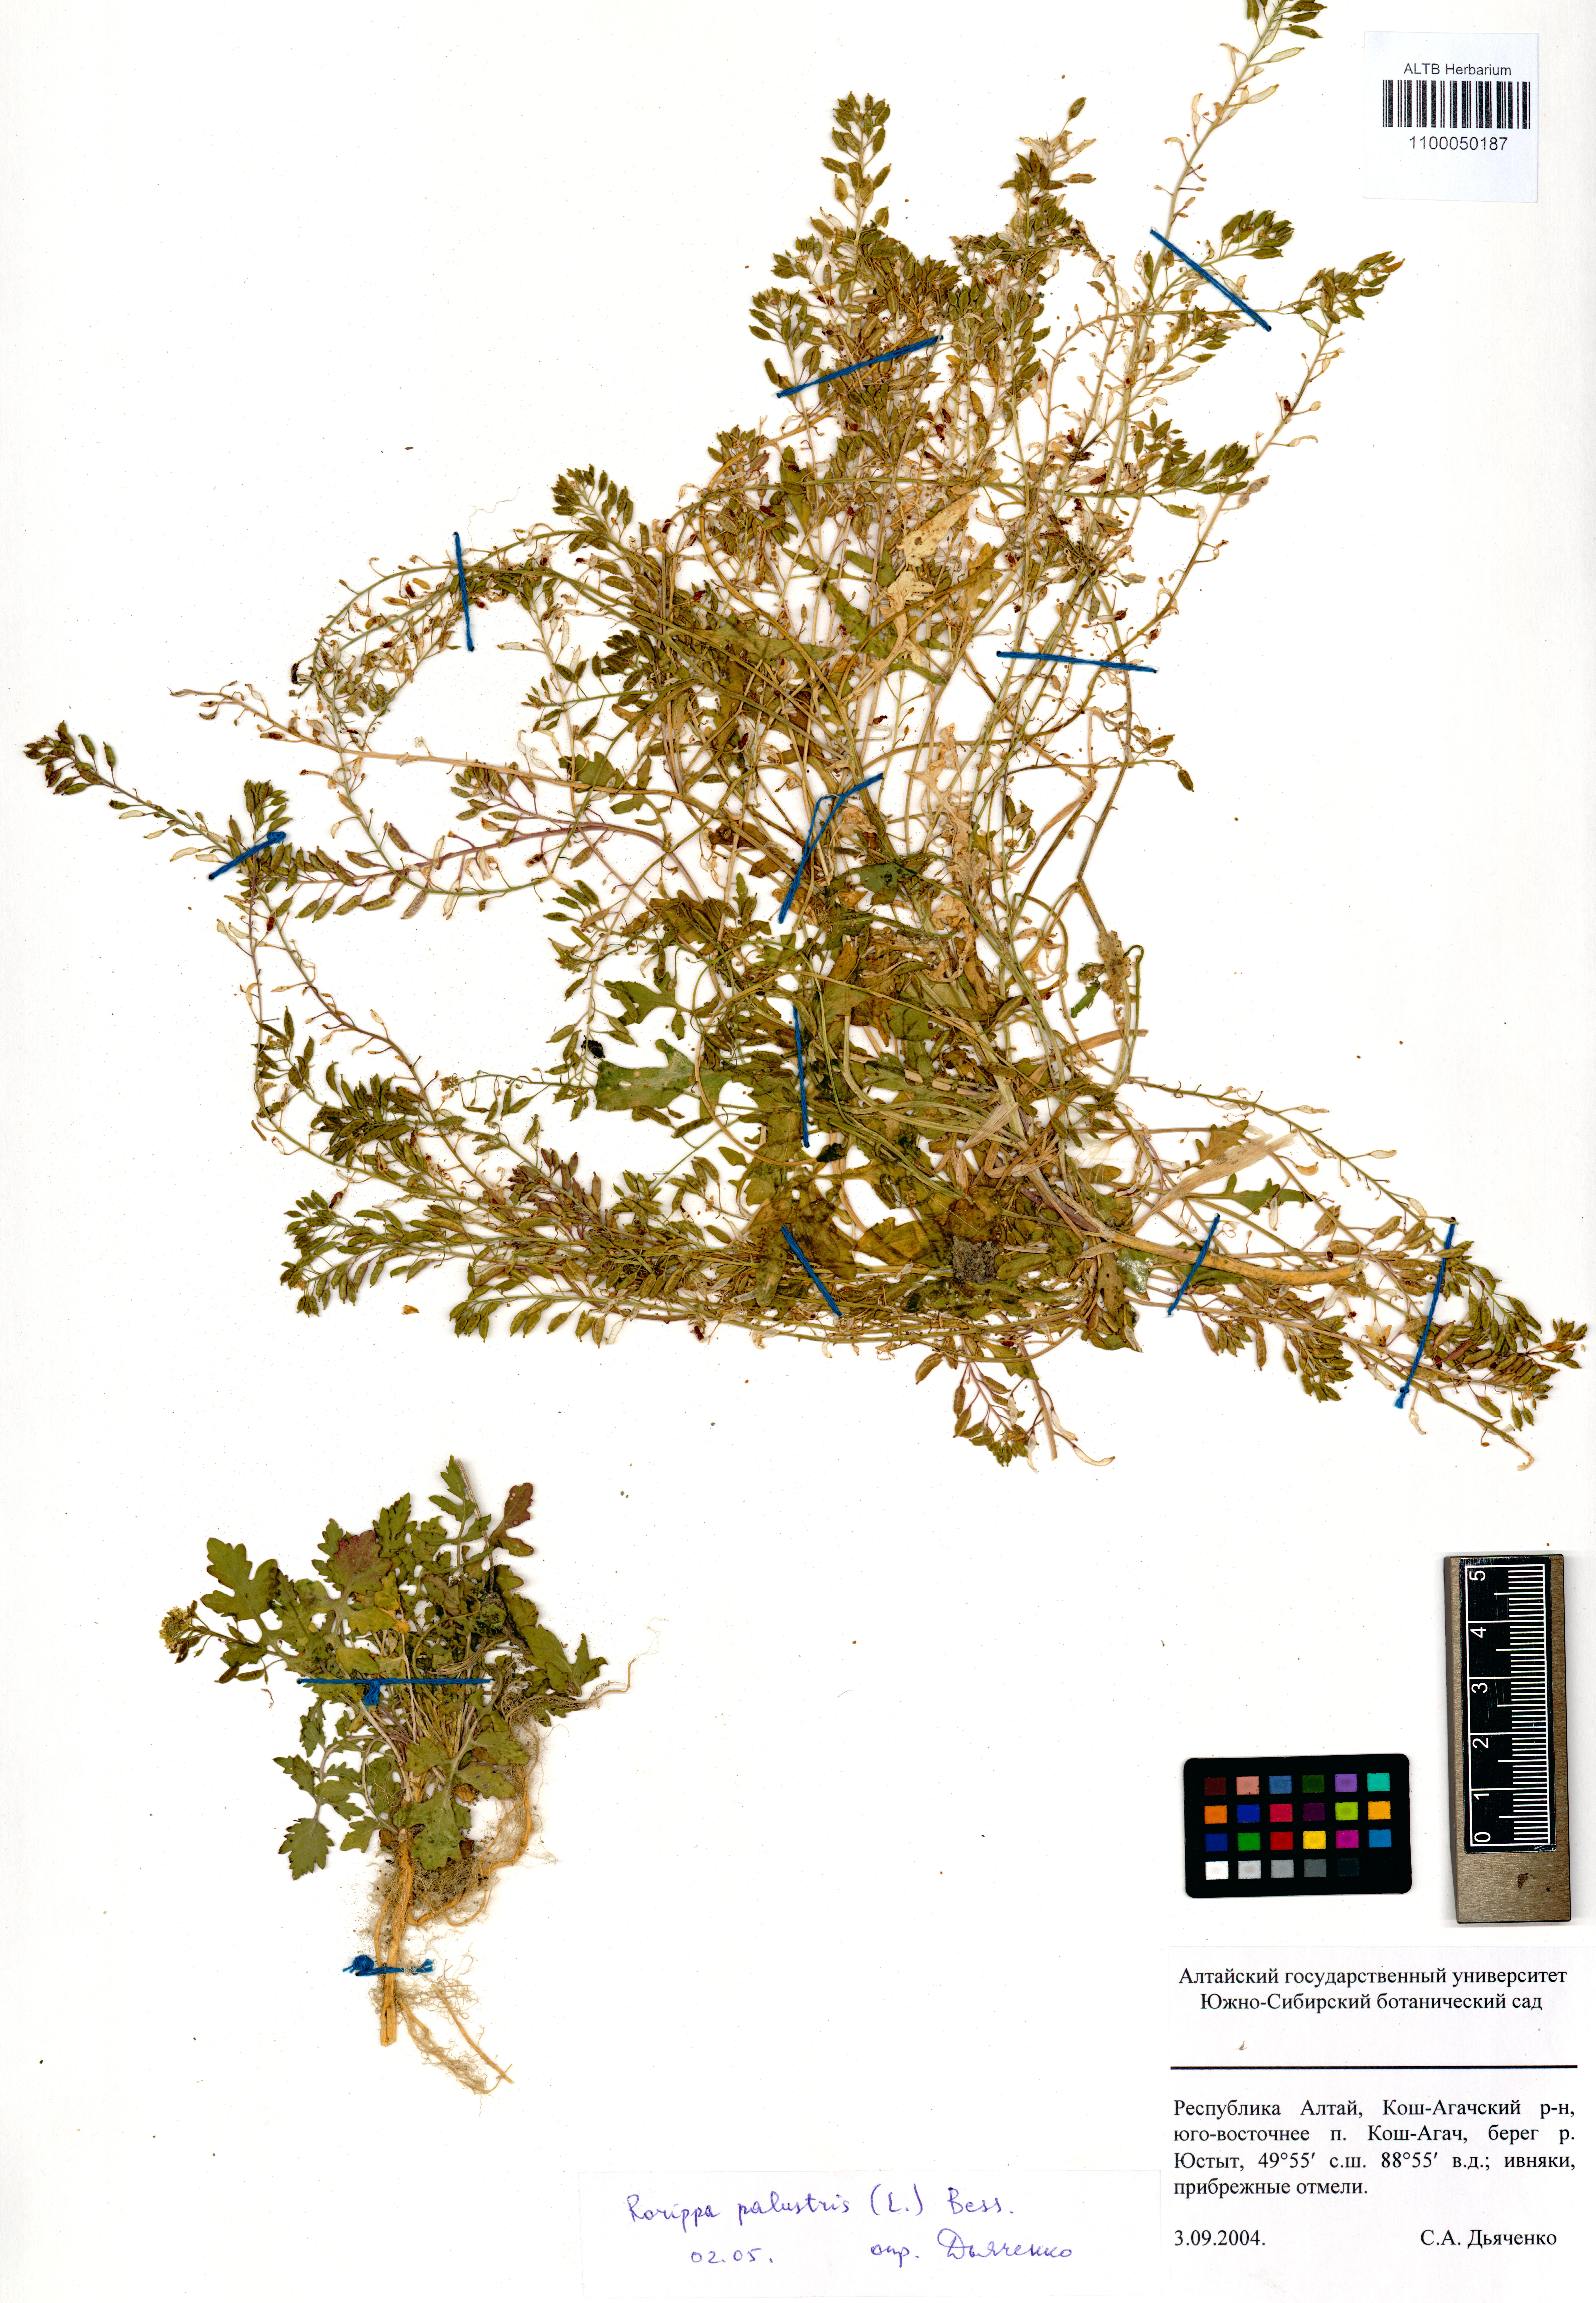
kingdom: Plantae
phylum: Tracheophyta
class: Magnoliopsida
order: Brassicales
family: Brassicaceae
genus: Rorippa
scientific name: Rorippa palustris
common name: Marsh yellow-cress
